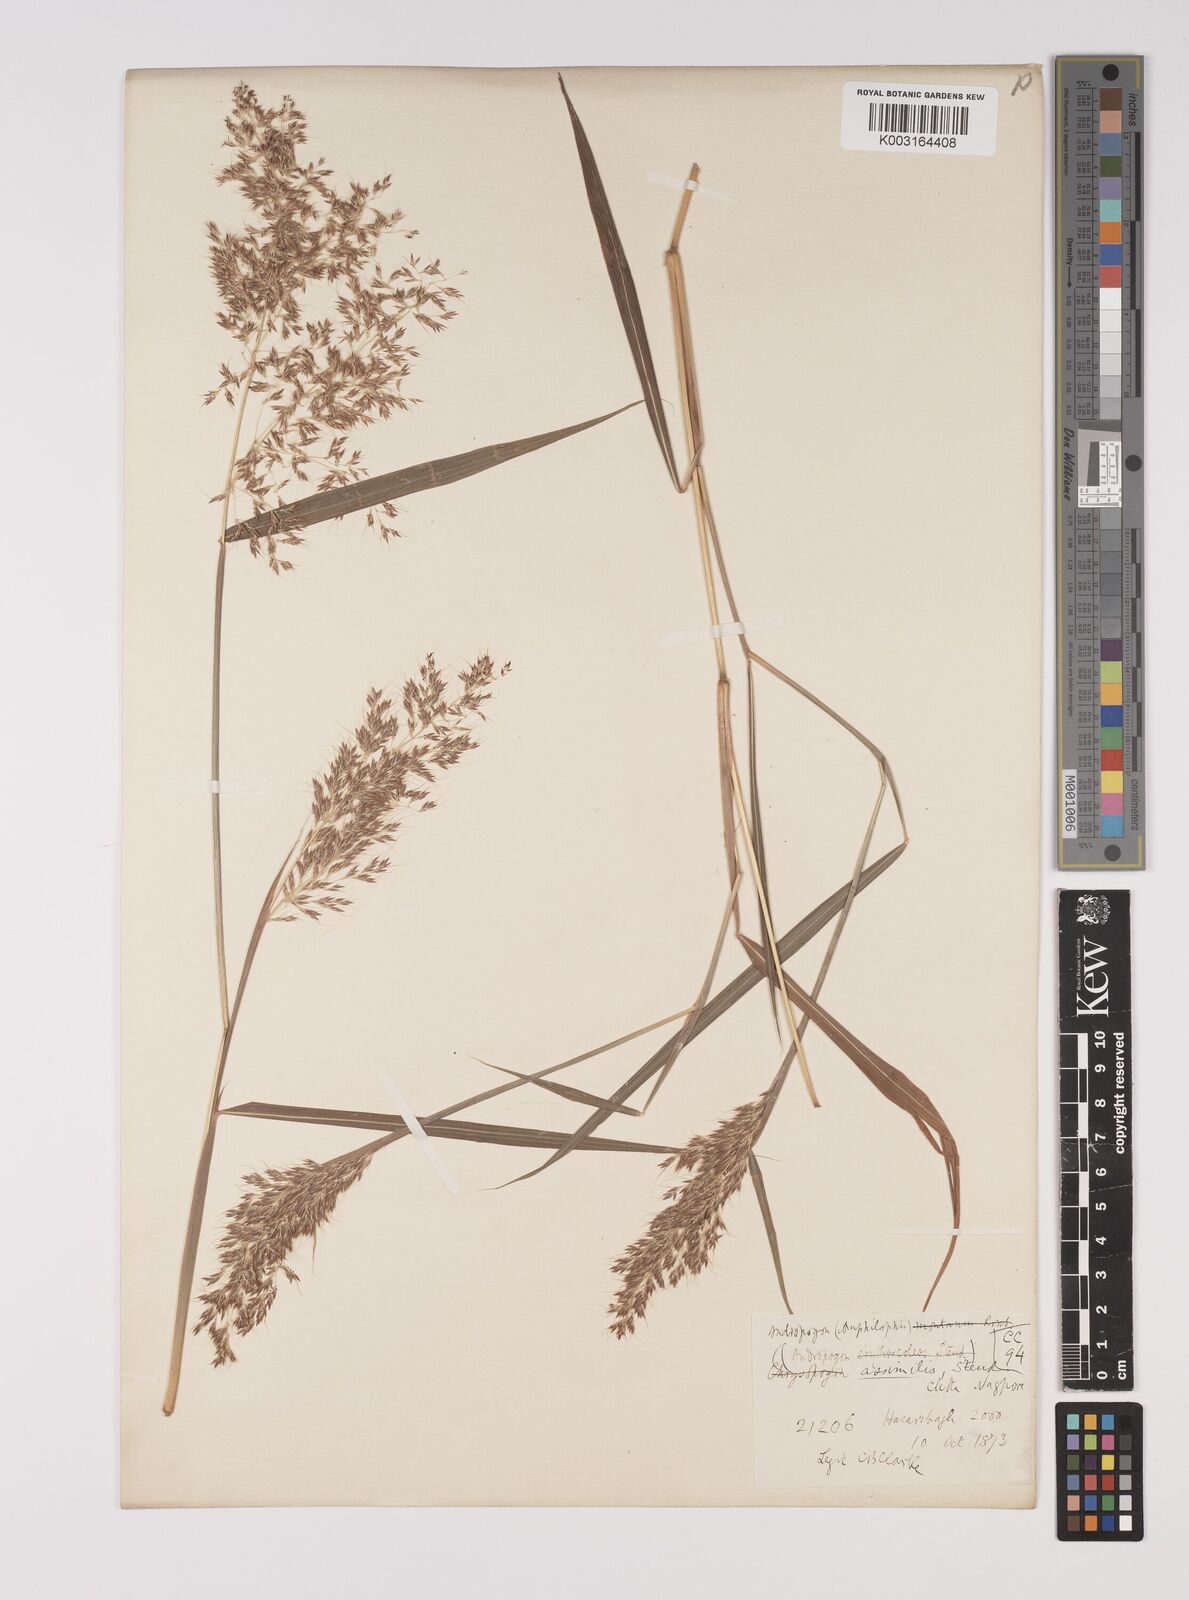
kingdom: Plantae
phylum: Tracheophyta
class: Liliopsida
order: Poales
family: Poaceae
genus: Capillipedium
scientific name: Capillipedium assimile
